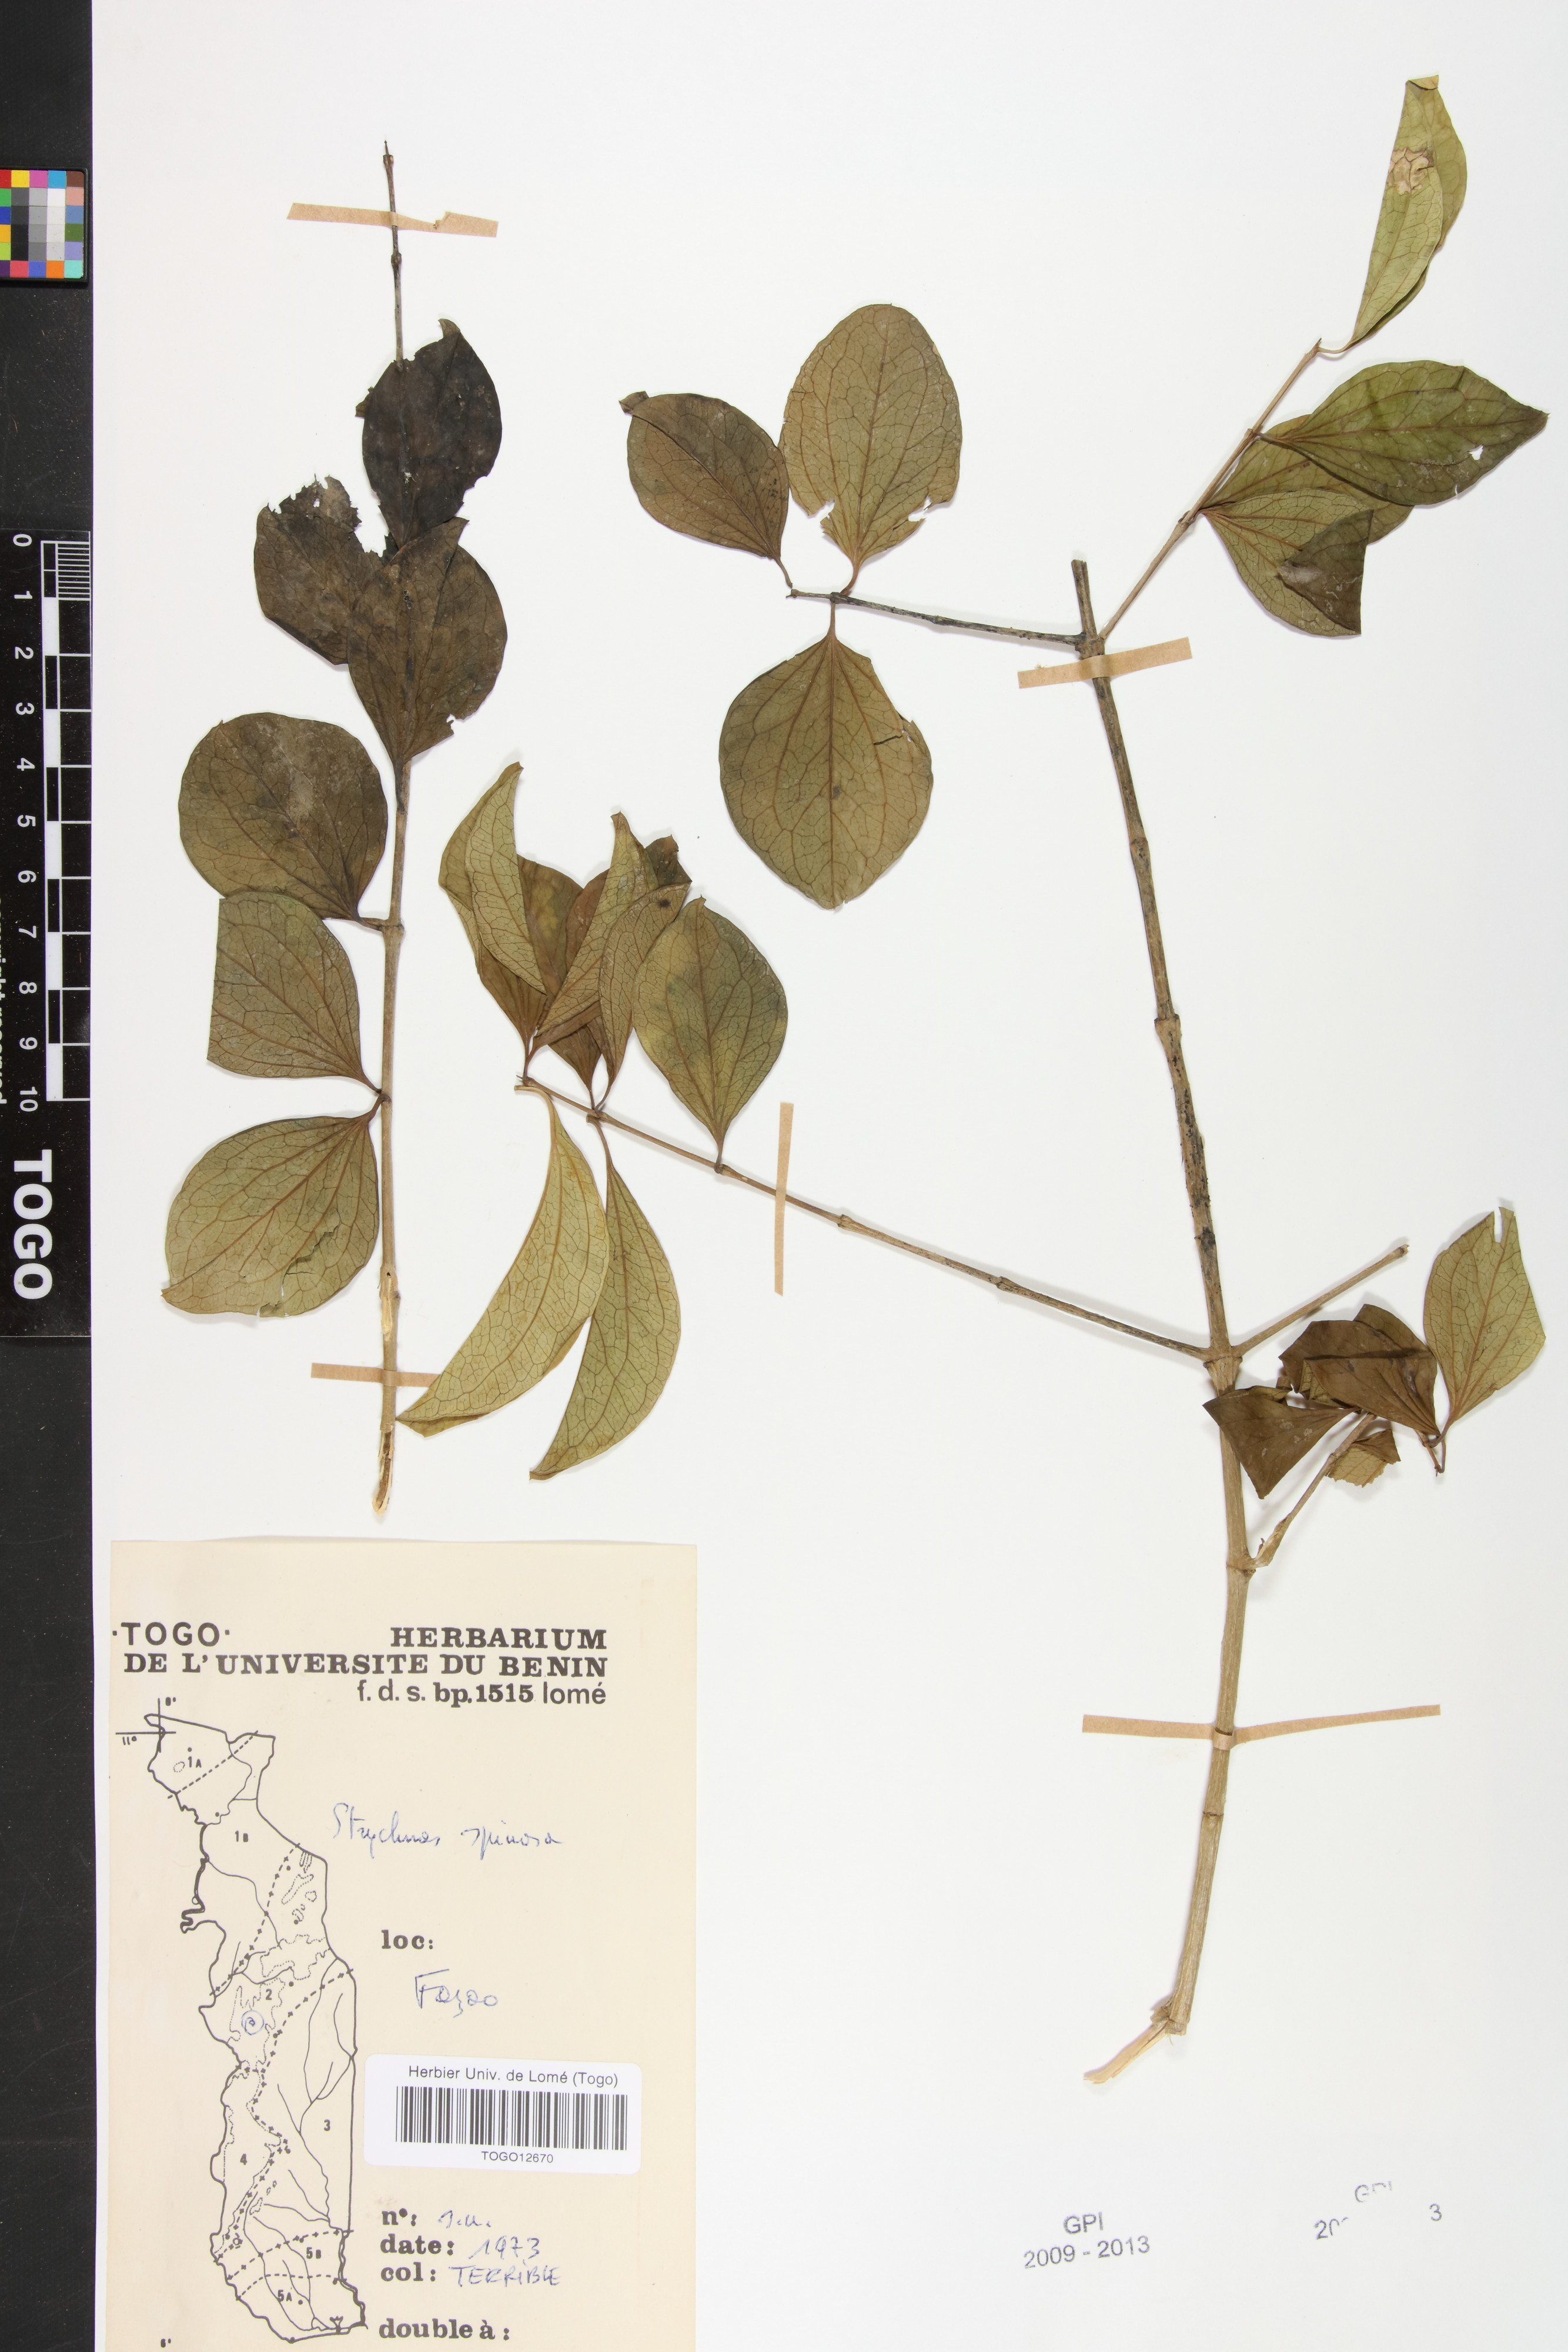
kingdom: Plantae
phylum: Tracheophyta
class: Magnoliopsida
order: Gentianales
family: Loganiaceae
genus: Strychnos
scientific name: Strychnos spinosa
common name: Natal orange
